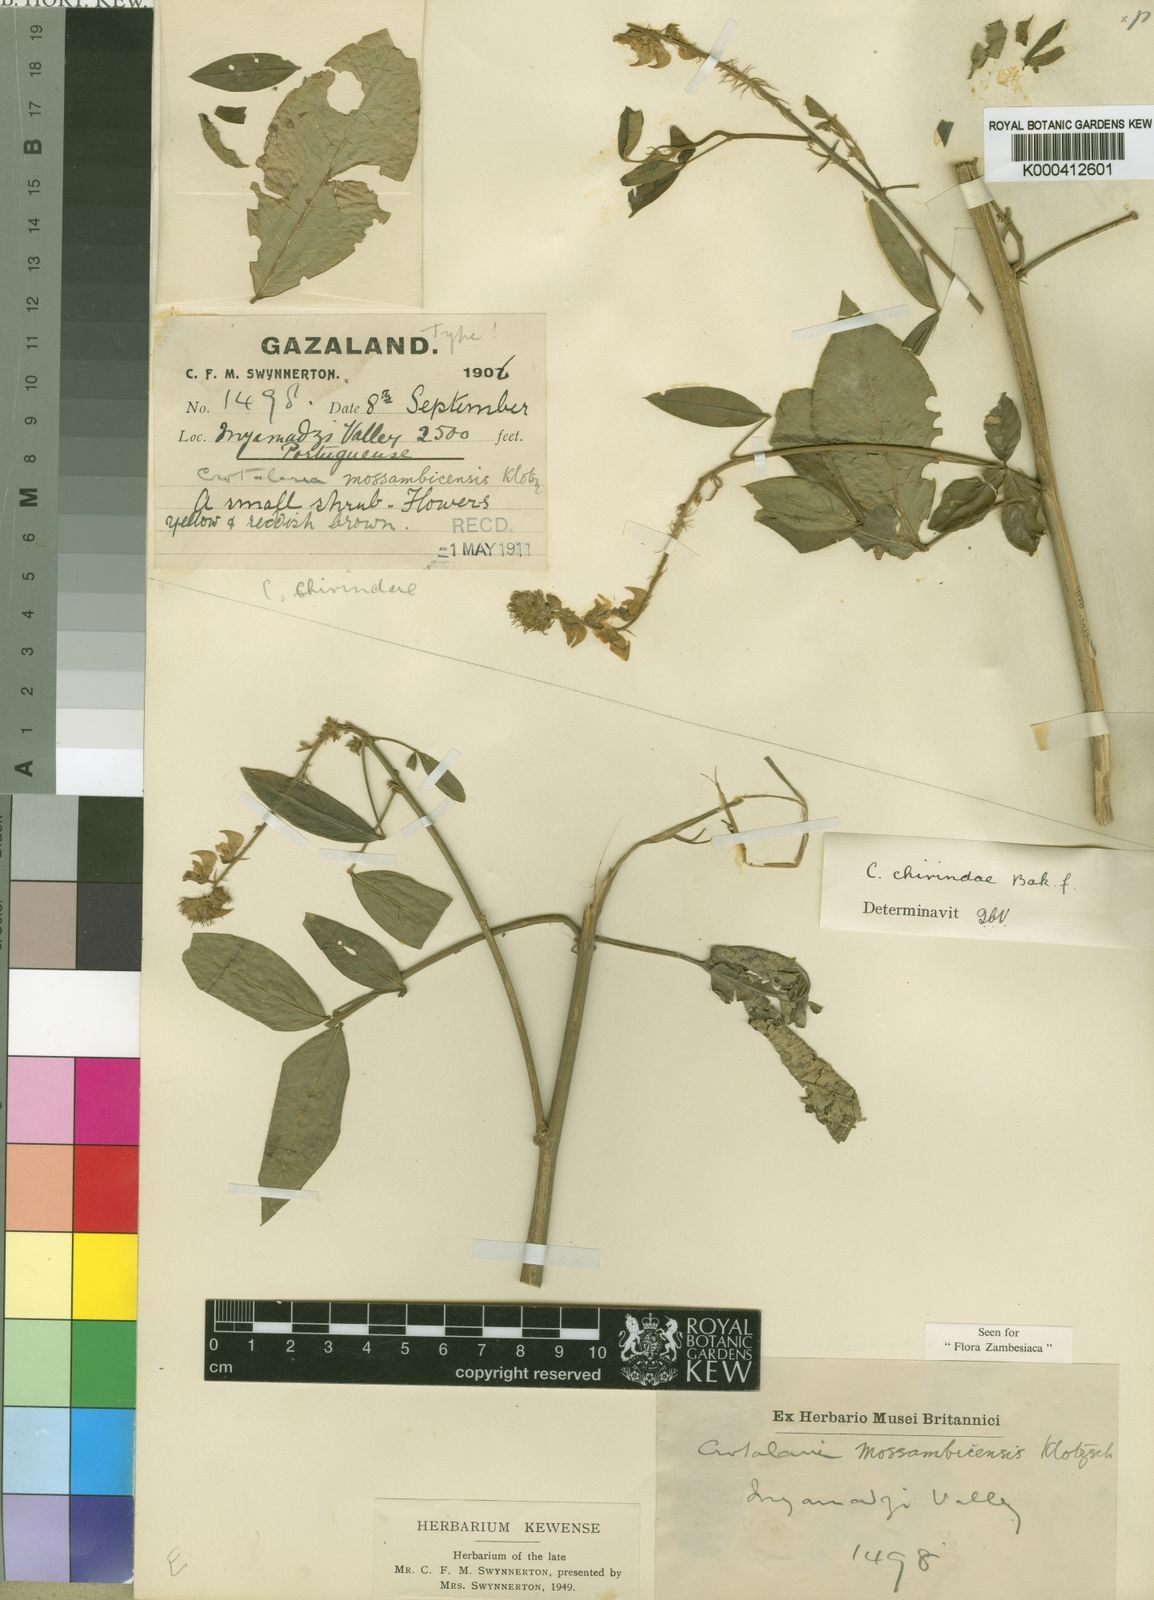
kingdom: Plantae
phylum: Tracheophyta
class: Magnoliopsida
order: Fabales
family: Fabaceae
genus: Crotalaria
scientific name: Crotalaria chirindae
